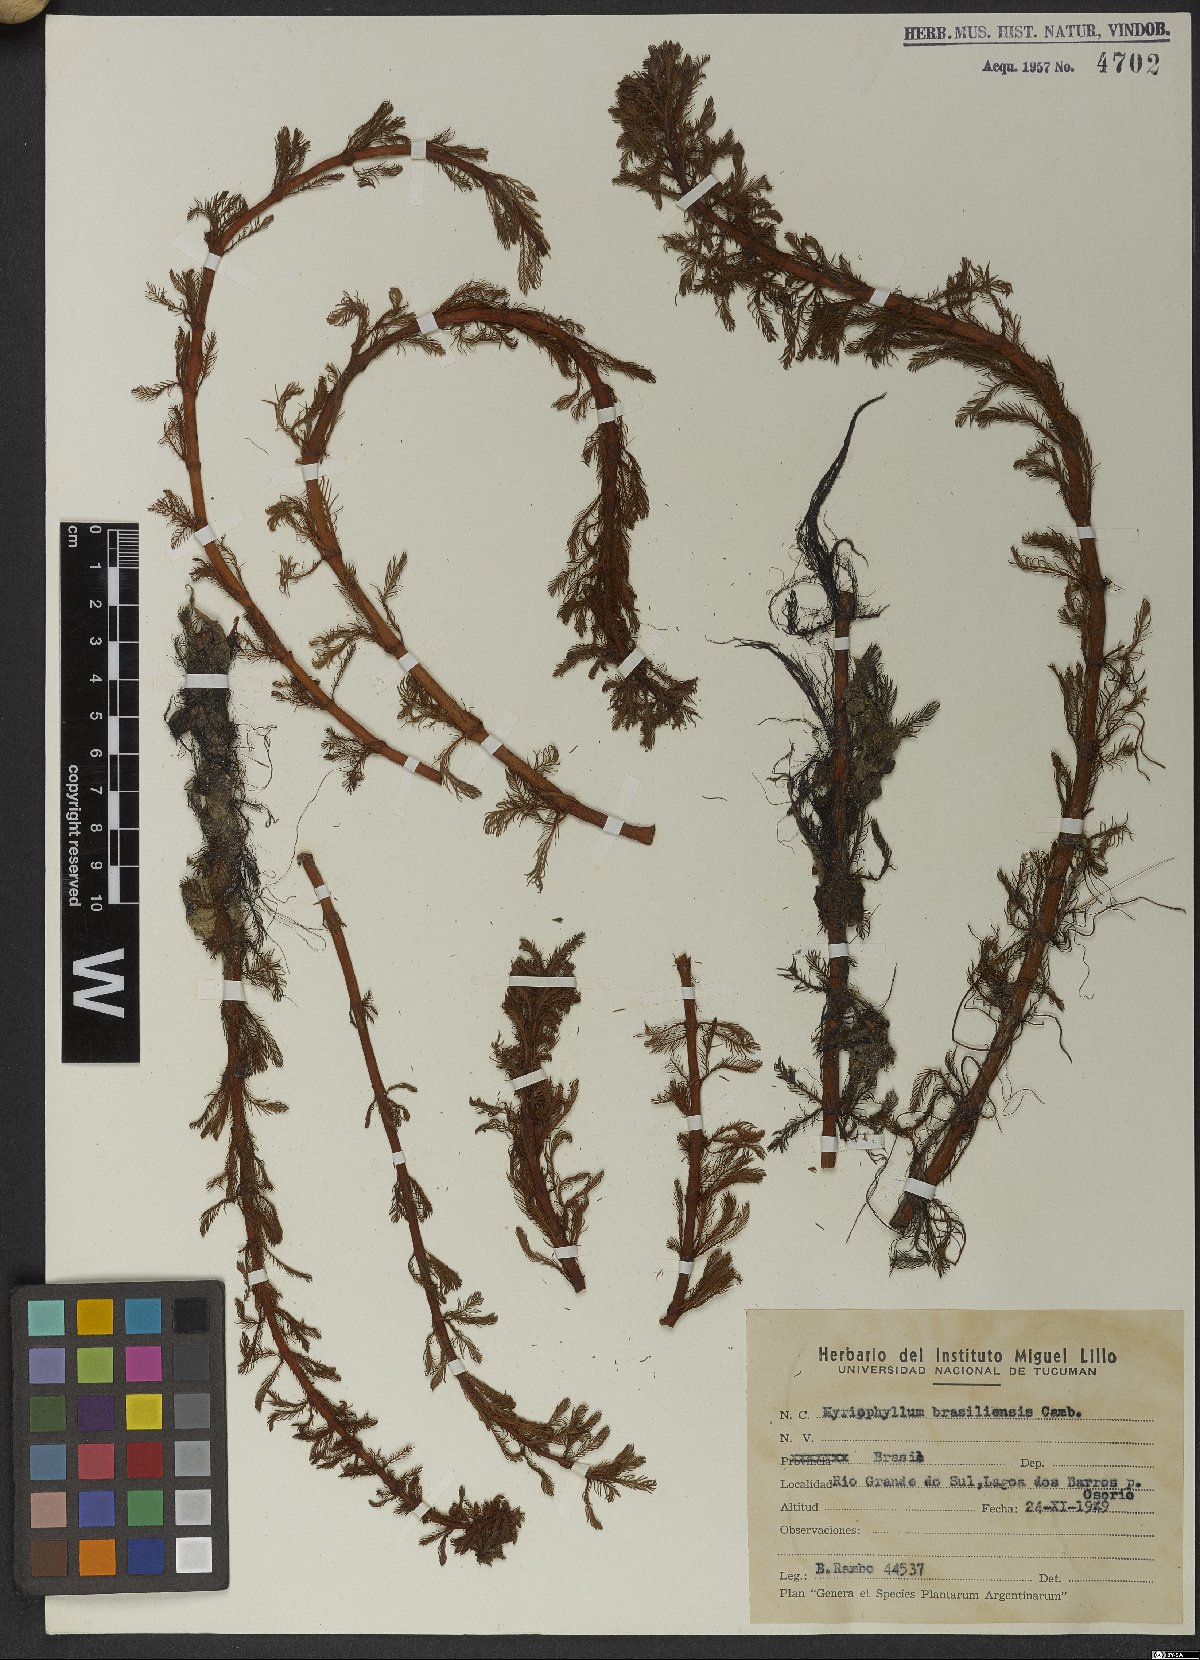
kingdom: Plantae
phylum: Tracheophyta
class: Magnoliopsida
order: Saxifragales
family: Haloragaceae
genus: Myriophyllum
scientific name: Myriophyllum aquaticum
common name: Parrot's feather
